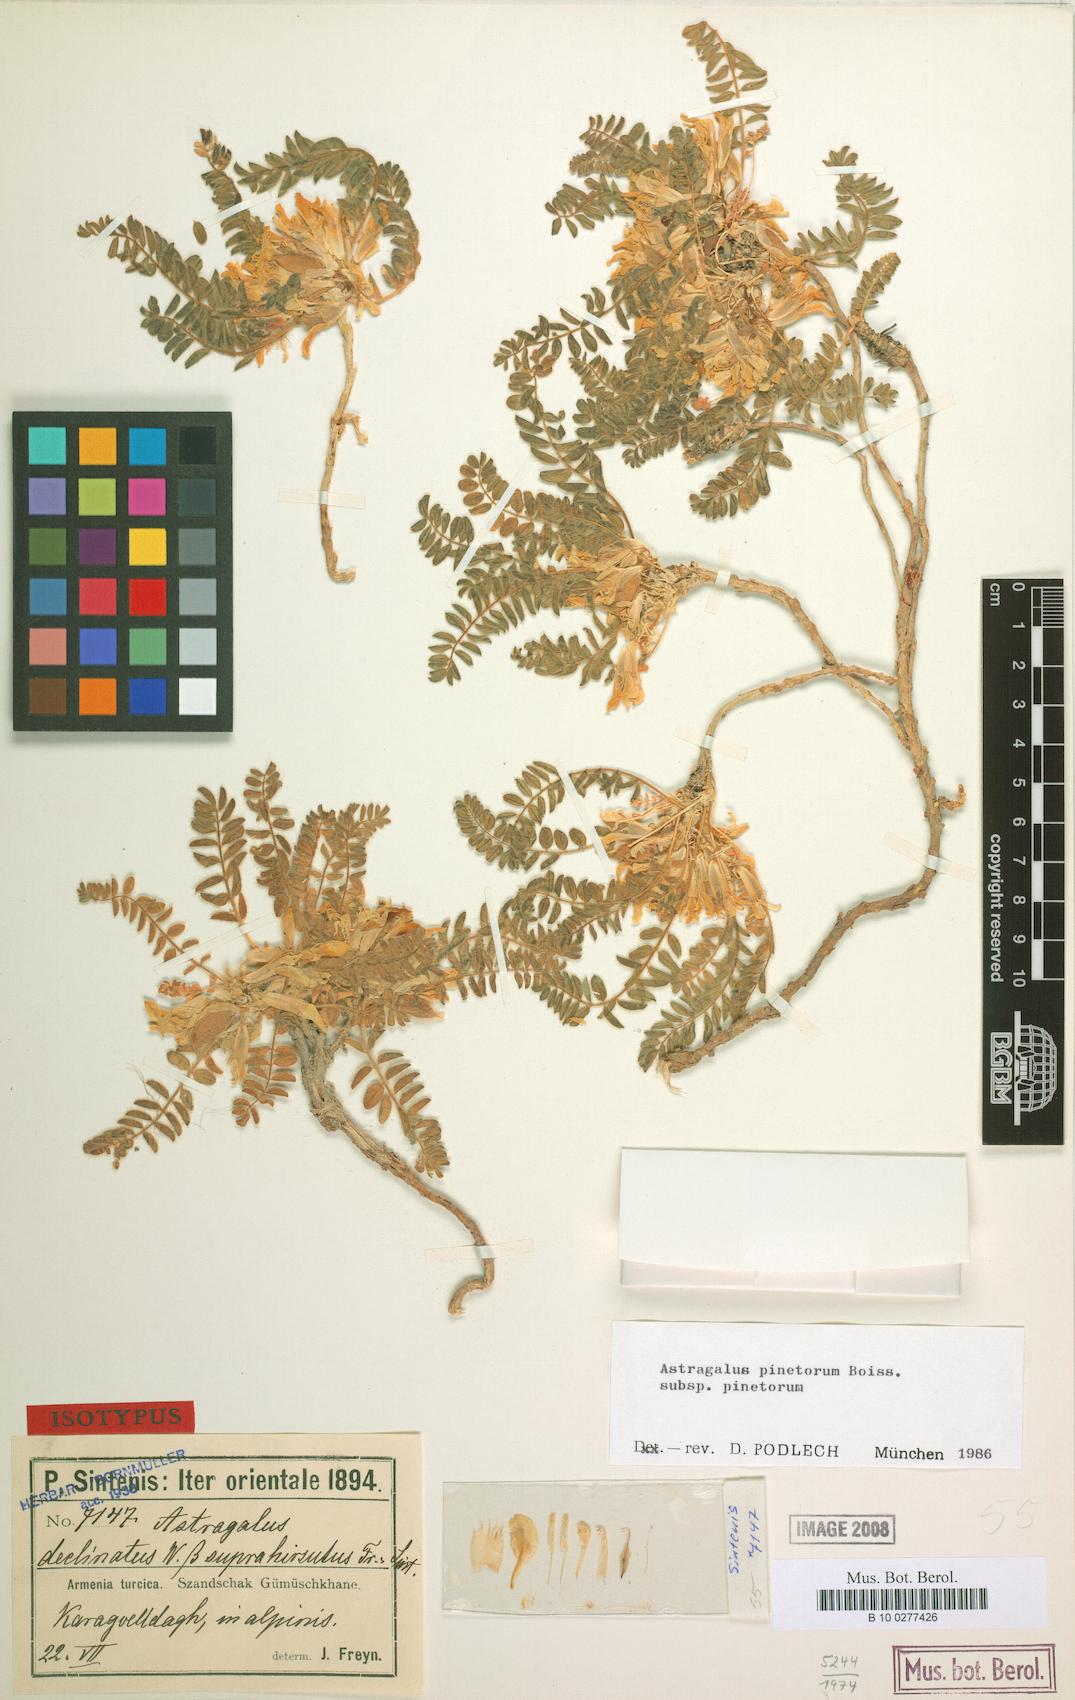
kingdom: Plantae
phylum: Tracheophyta
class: Magnoliopsida
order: Fabales
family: Fabaceae
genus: Astragalus
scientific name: Astragalus pinetorum
